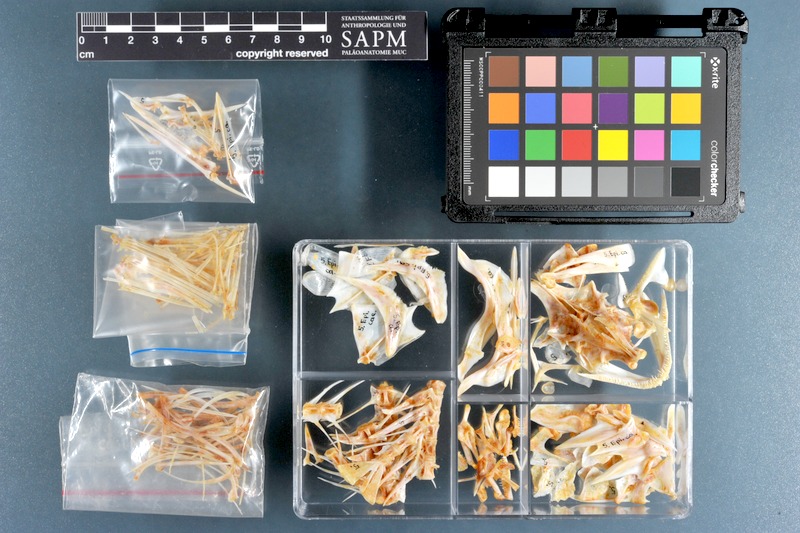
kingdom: Animalia
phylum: Chordata
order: Perciformes
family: Serranidae
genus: Epinephelus
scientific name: Epinephelus coeruleopunctatus
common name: Whitespotted grouper
